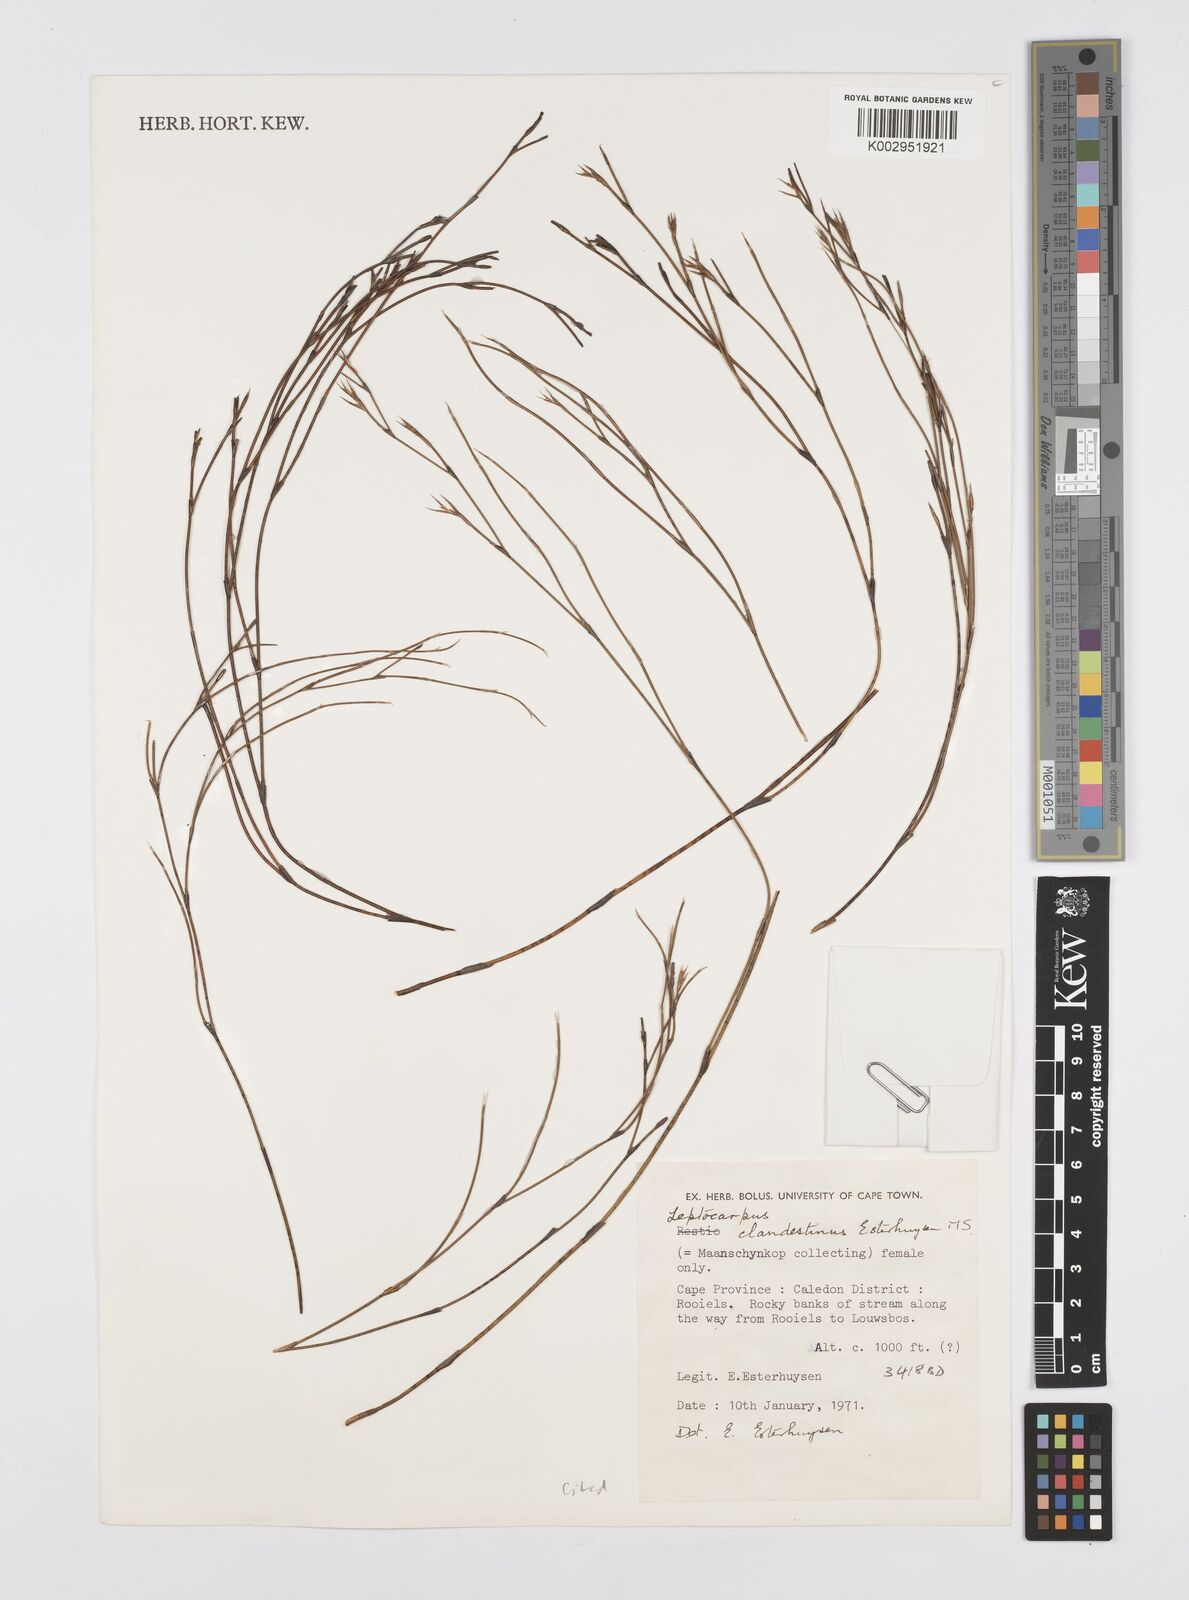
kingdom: Plantae
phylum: Tracheophyta
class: Liliopsida
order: Poales
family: Restionaceae
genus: Restio
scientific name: Restio clandestinus
